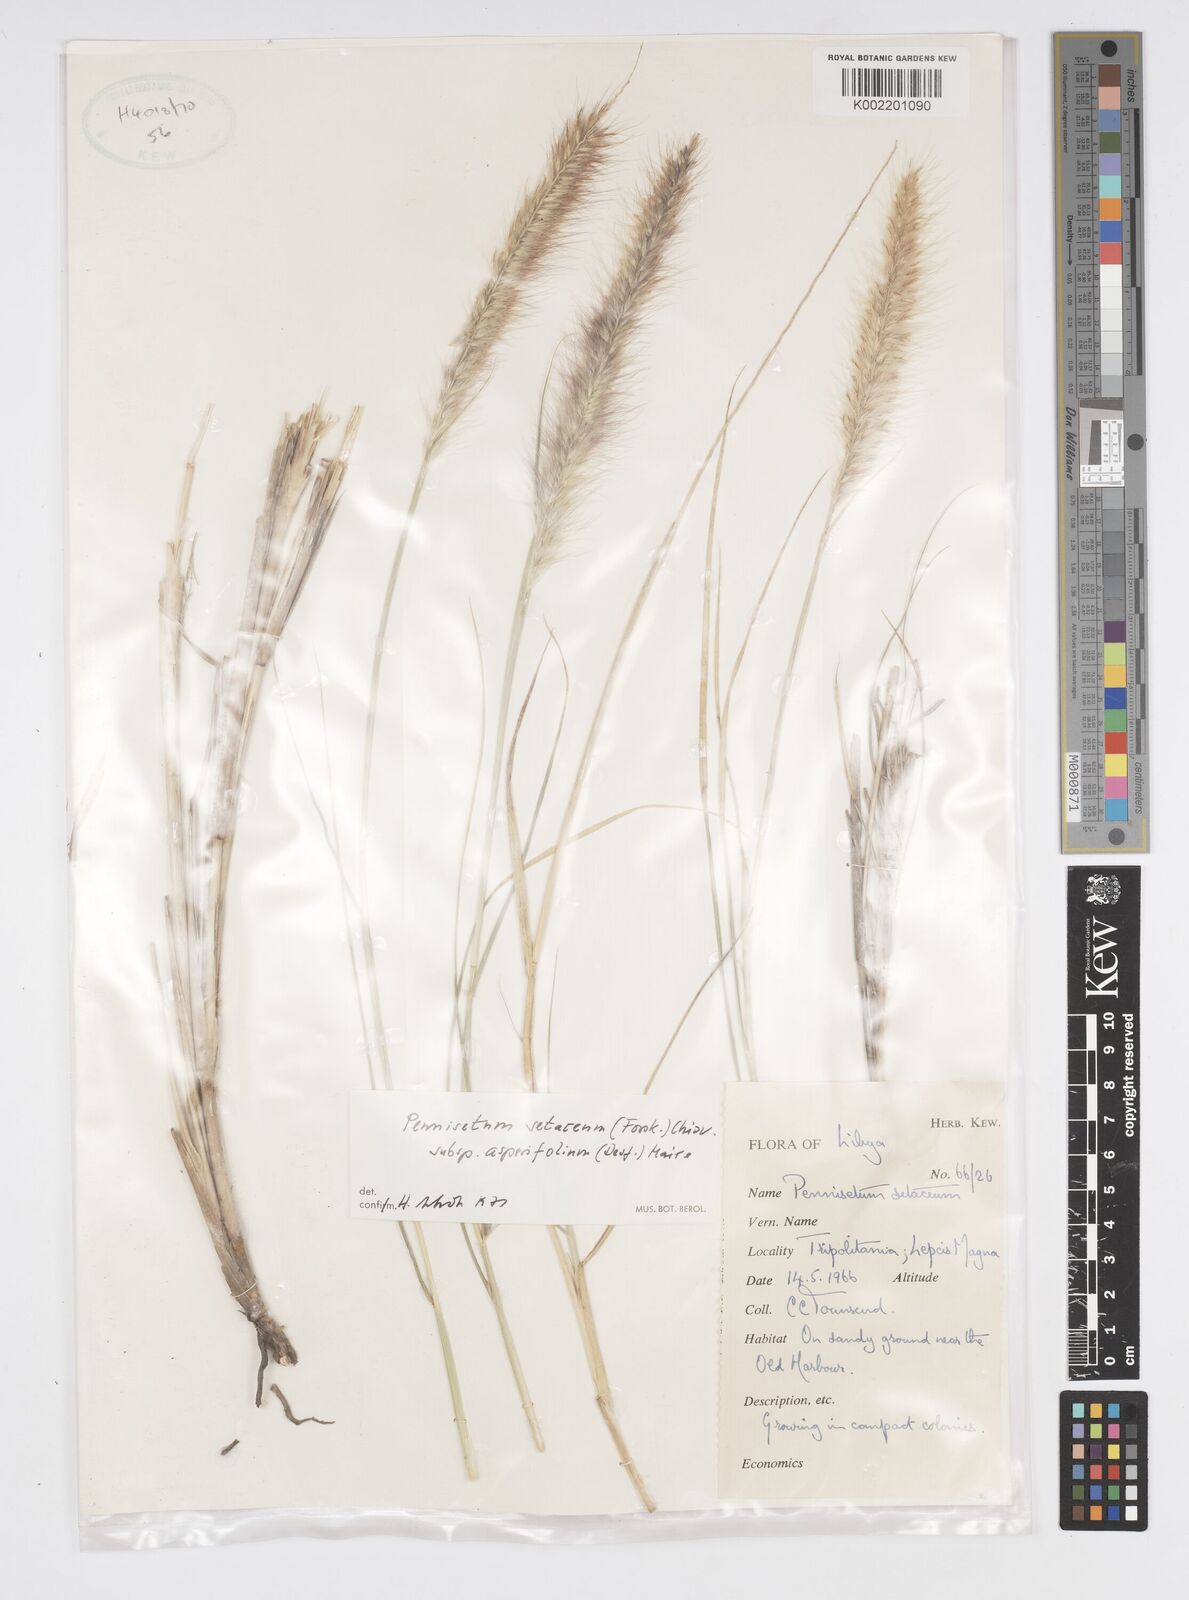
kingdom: Plantae
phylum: Tracheophyta
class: Liliopsida
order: Poales
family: Poaceae
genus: Cenchrus
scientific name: Cenchrus setaceus
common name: Crimson fountaingrass
